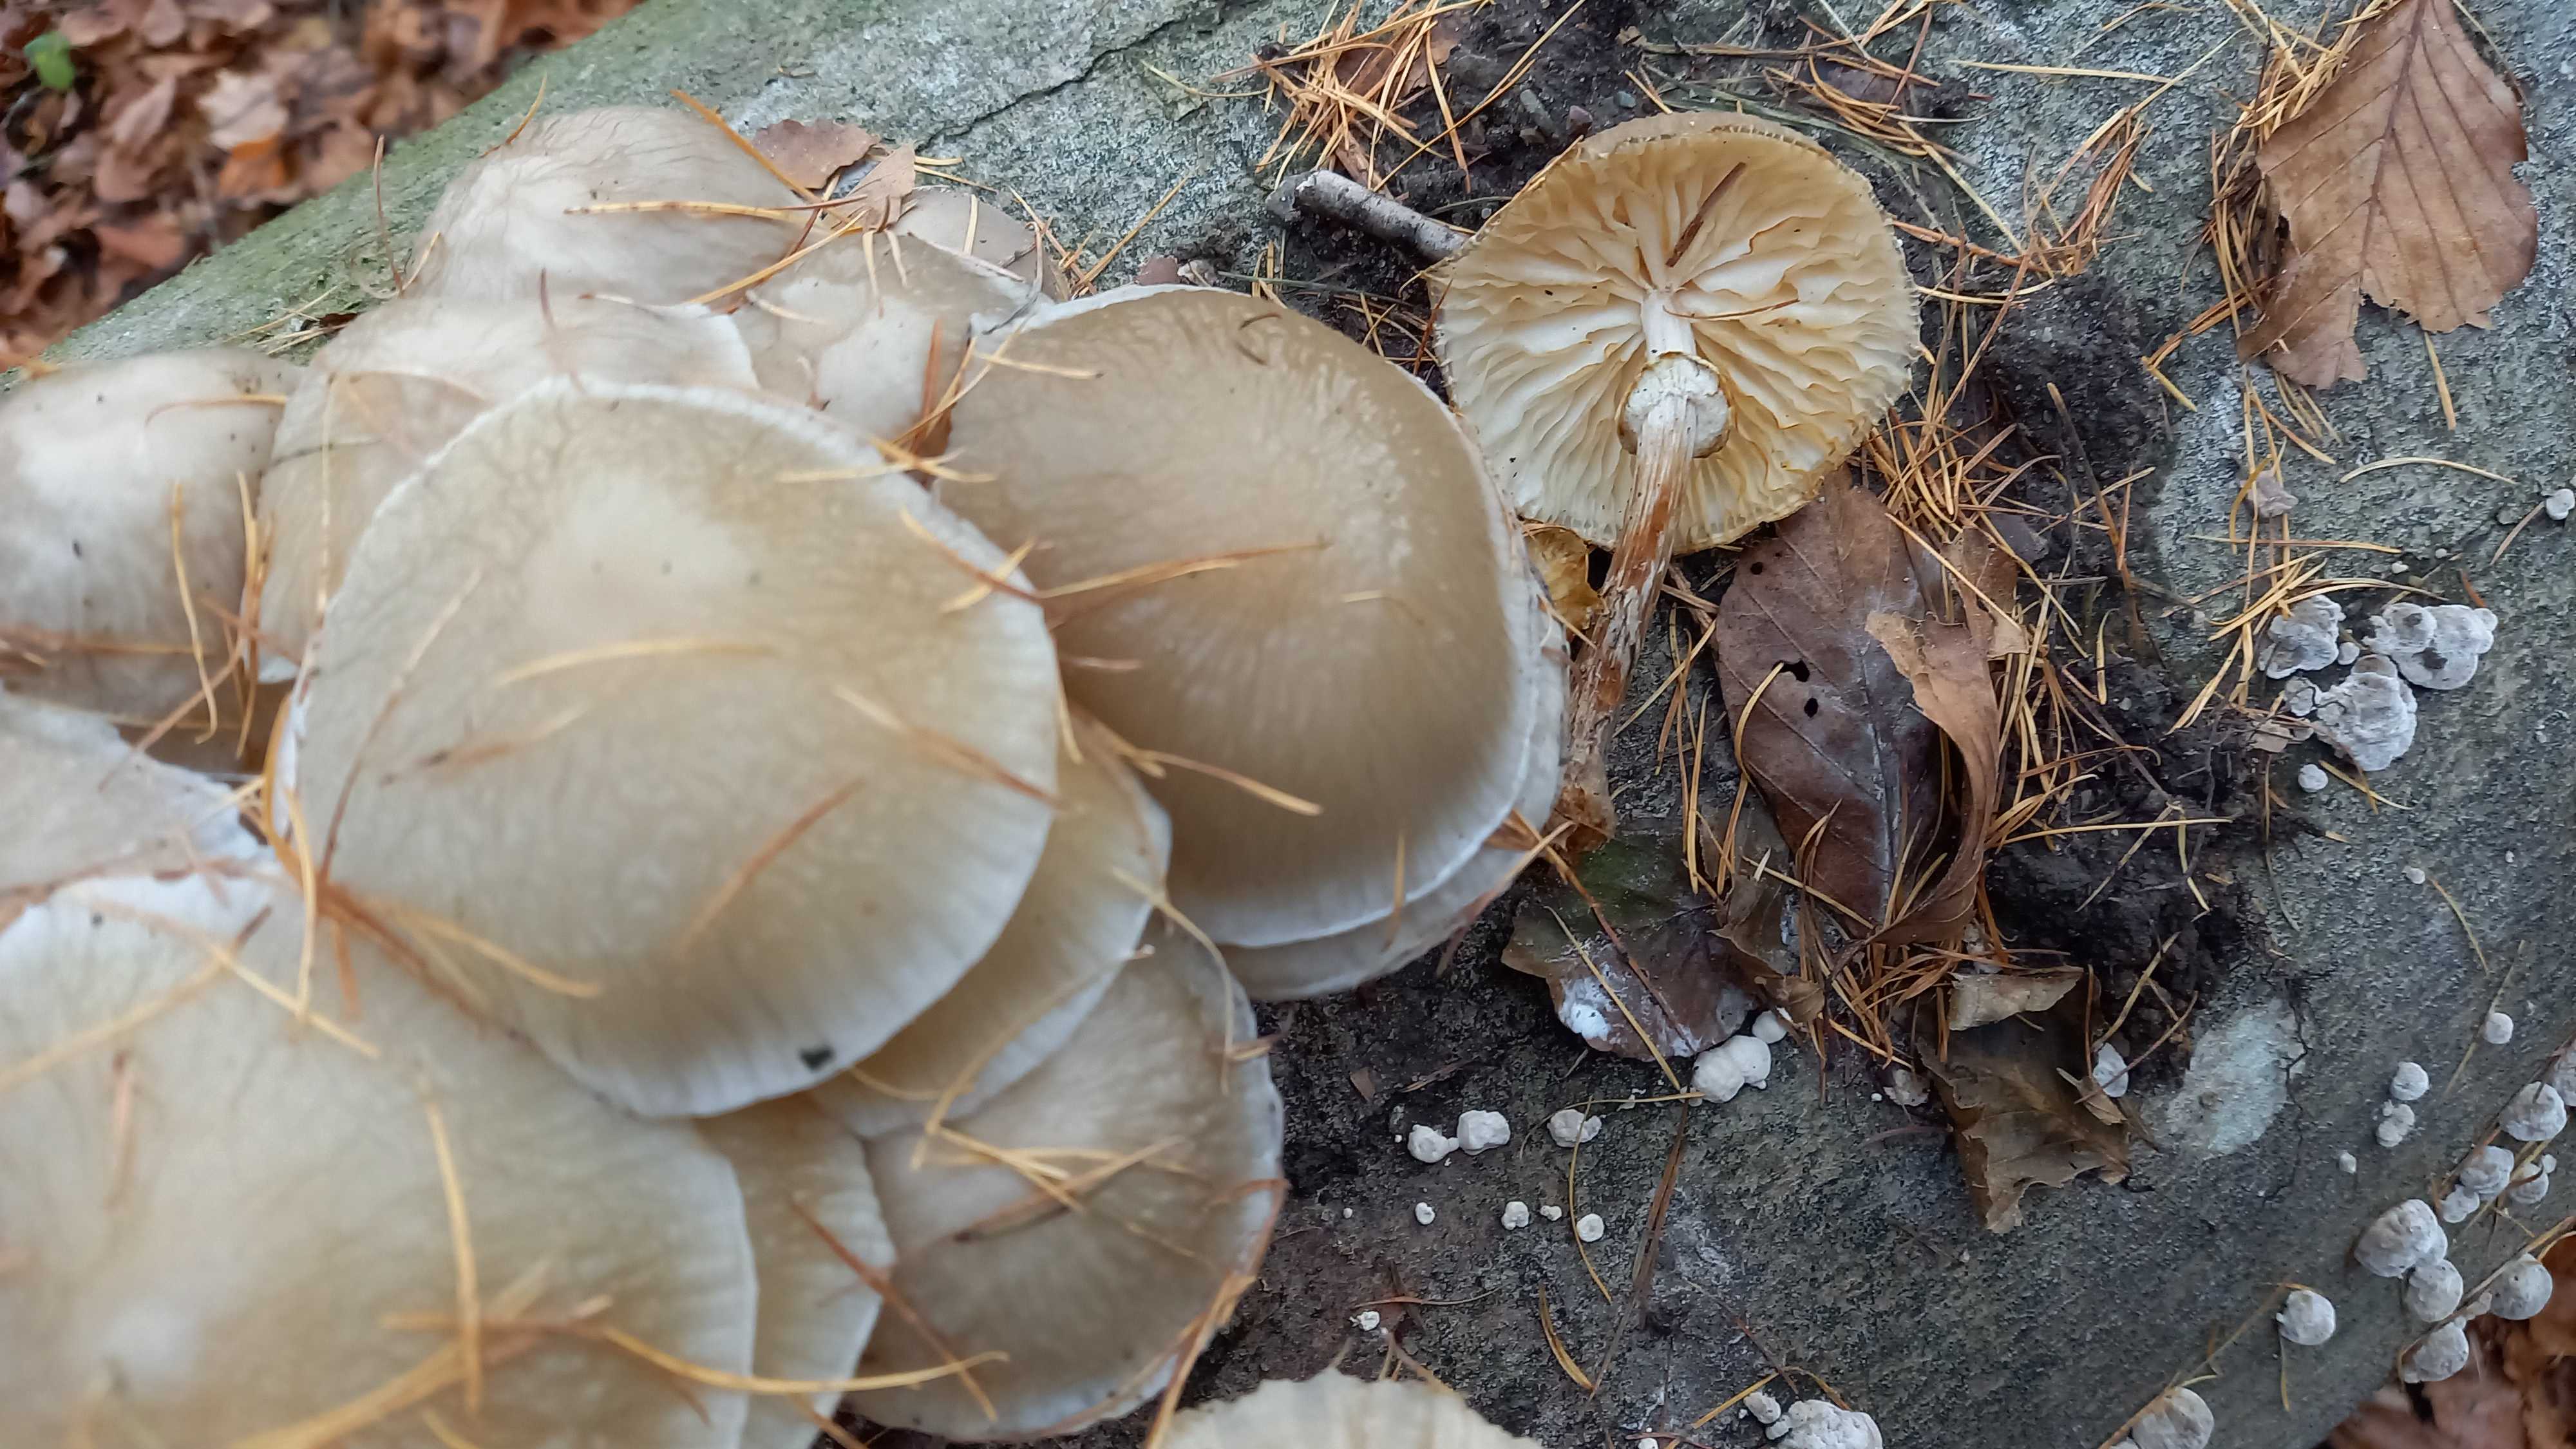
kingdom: Fungi
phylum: Basidiomycota
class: Agaricomycetes
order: Agaricales
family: Physalacriaceae
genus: Mucidula
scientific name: Mucidula mucida
